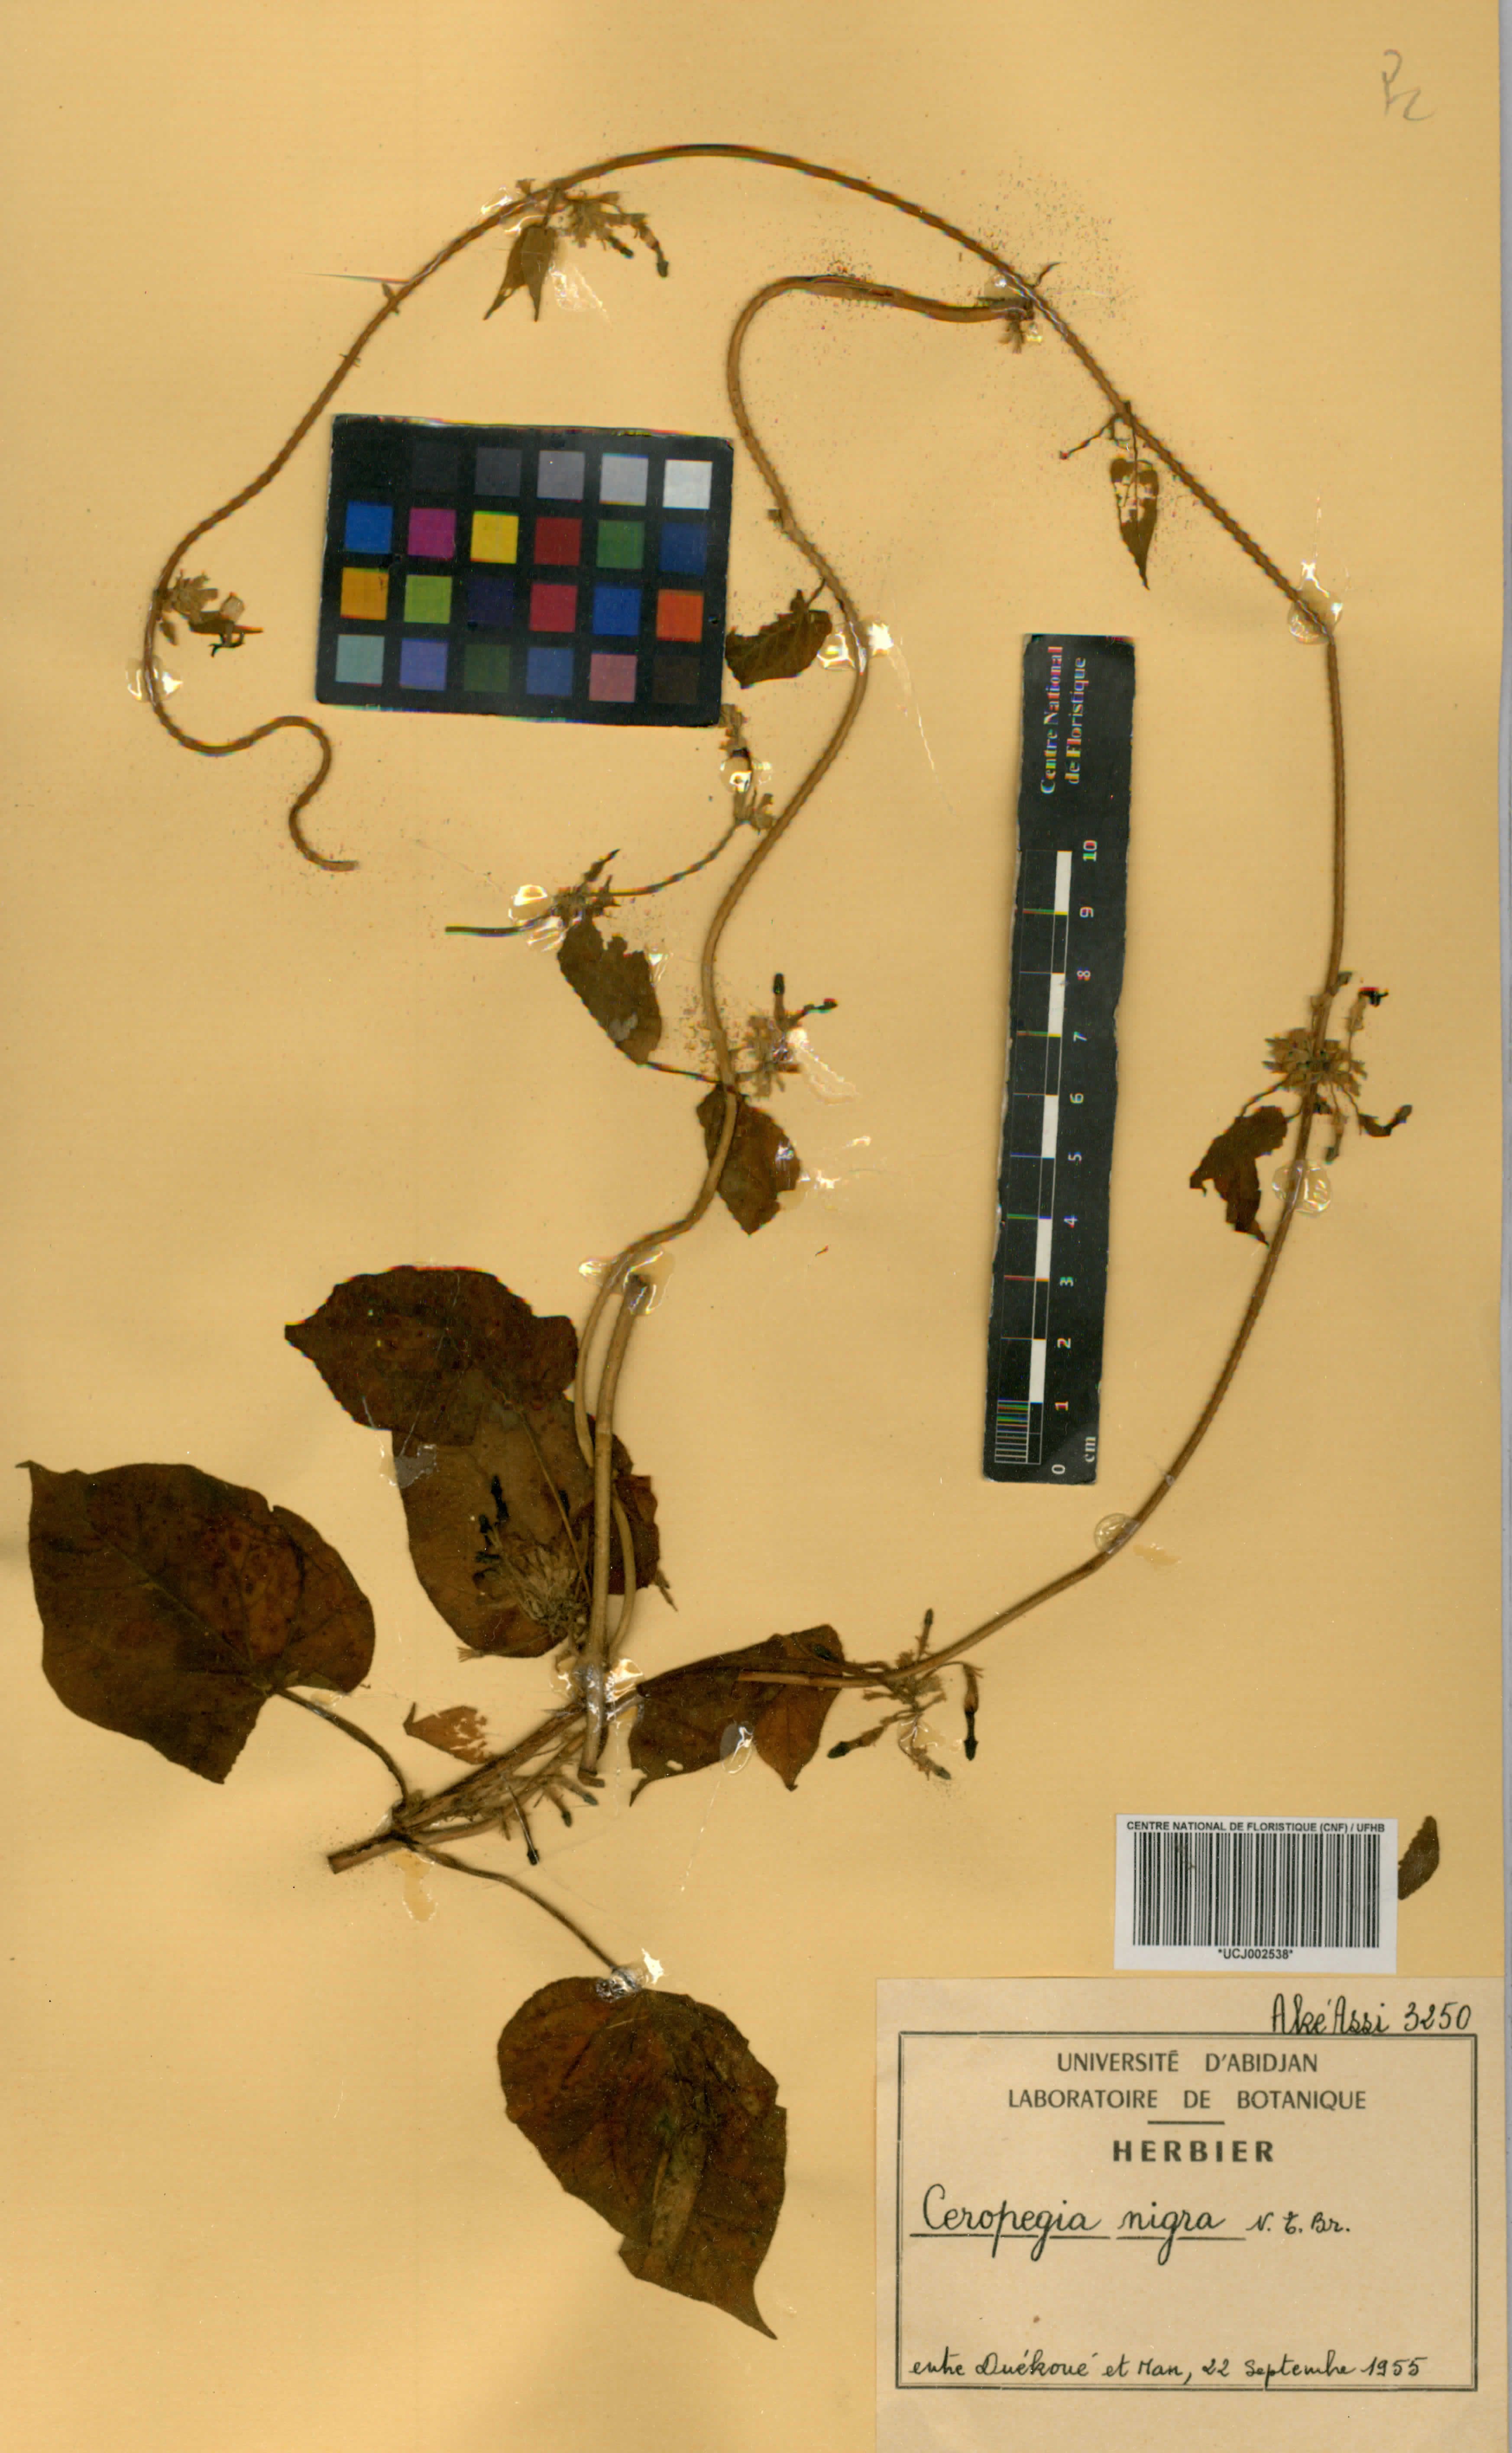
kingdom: Plantae
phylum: Tracheophyta
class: Magnoliopsida
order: Gentianales
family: Apocynaceae
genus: Ceropegia
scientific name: Ceropegia nigra
